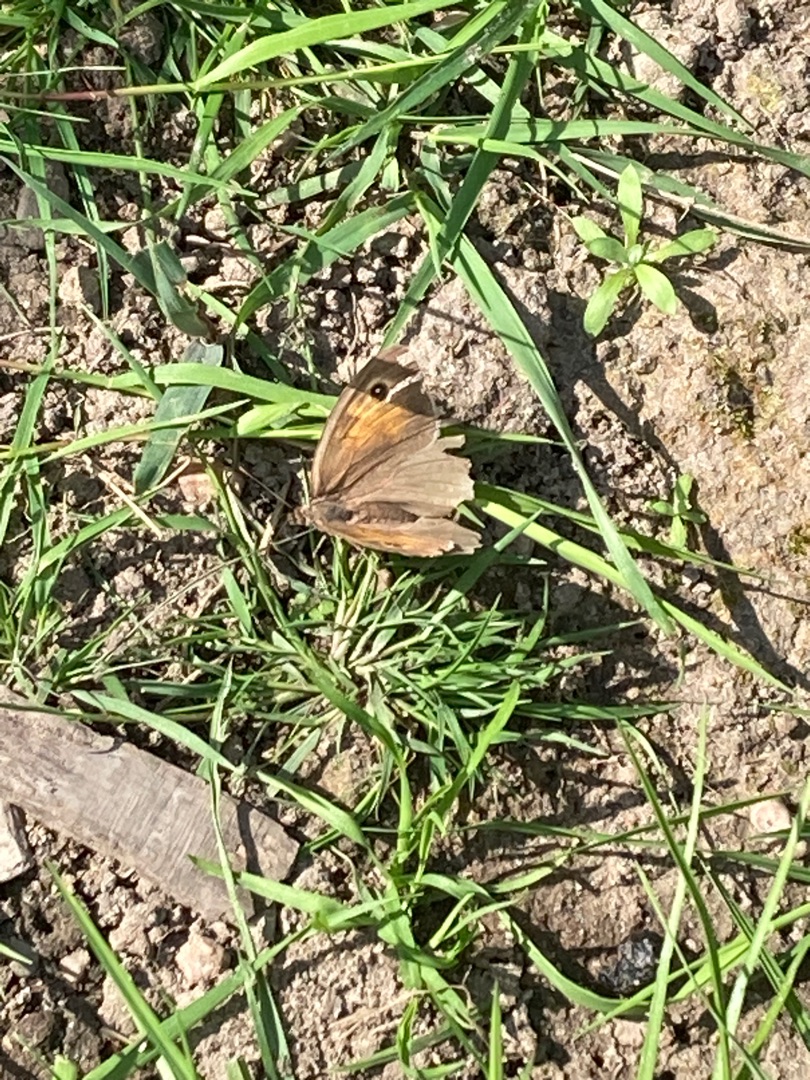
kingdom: Animalia
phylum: Arthropoda
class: Insecta
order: Lepidoptera
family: Nymphalidae
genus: Maniola
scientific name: Maniola jurtina
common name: Græsrandøje
